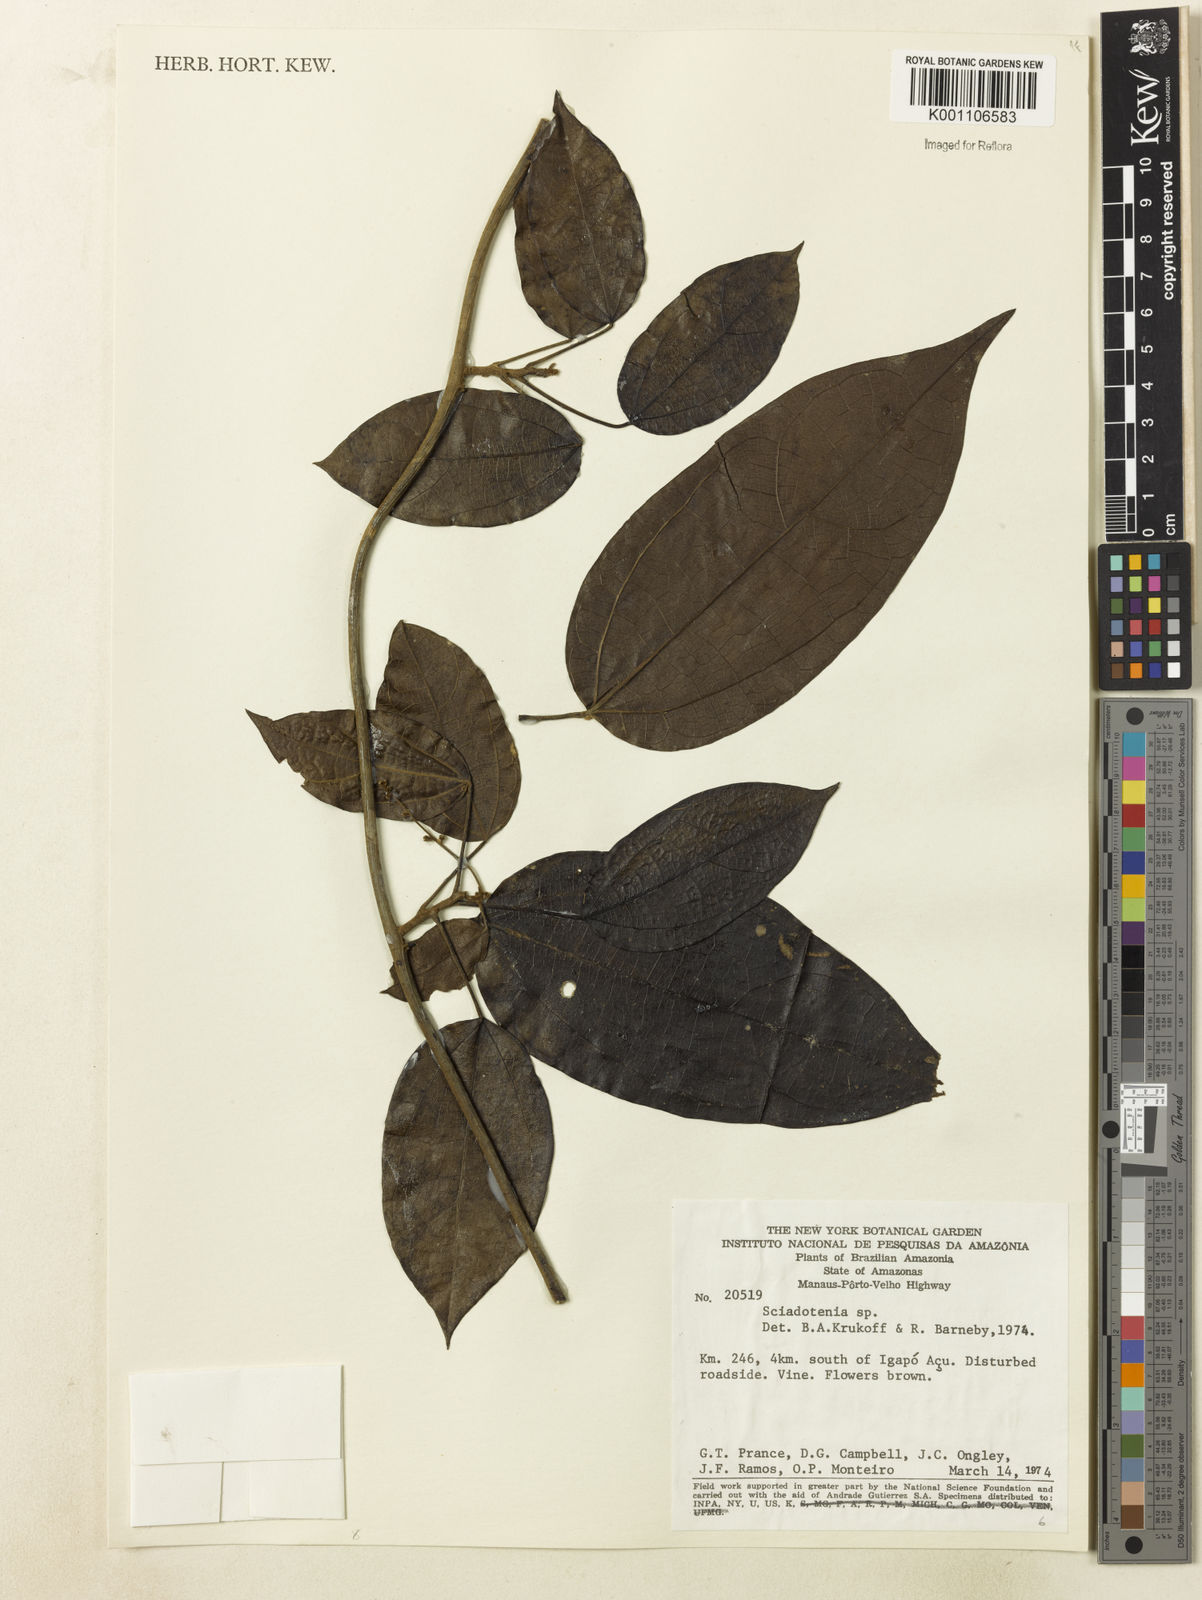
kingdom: Plantae
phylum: Tracheophyta
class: Magnoliopsida
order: Ranunculales
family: Menispermaceae
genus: Sciadotenia
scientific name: Sciadotenia
